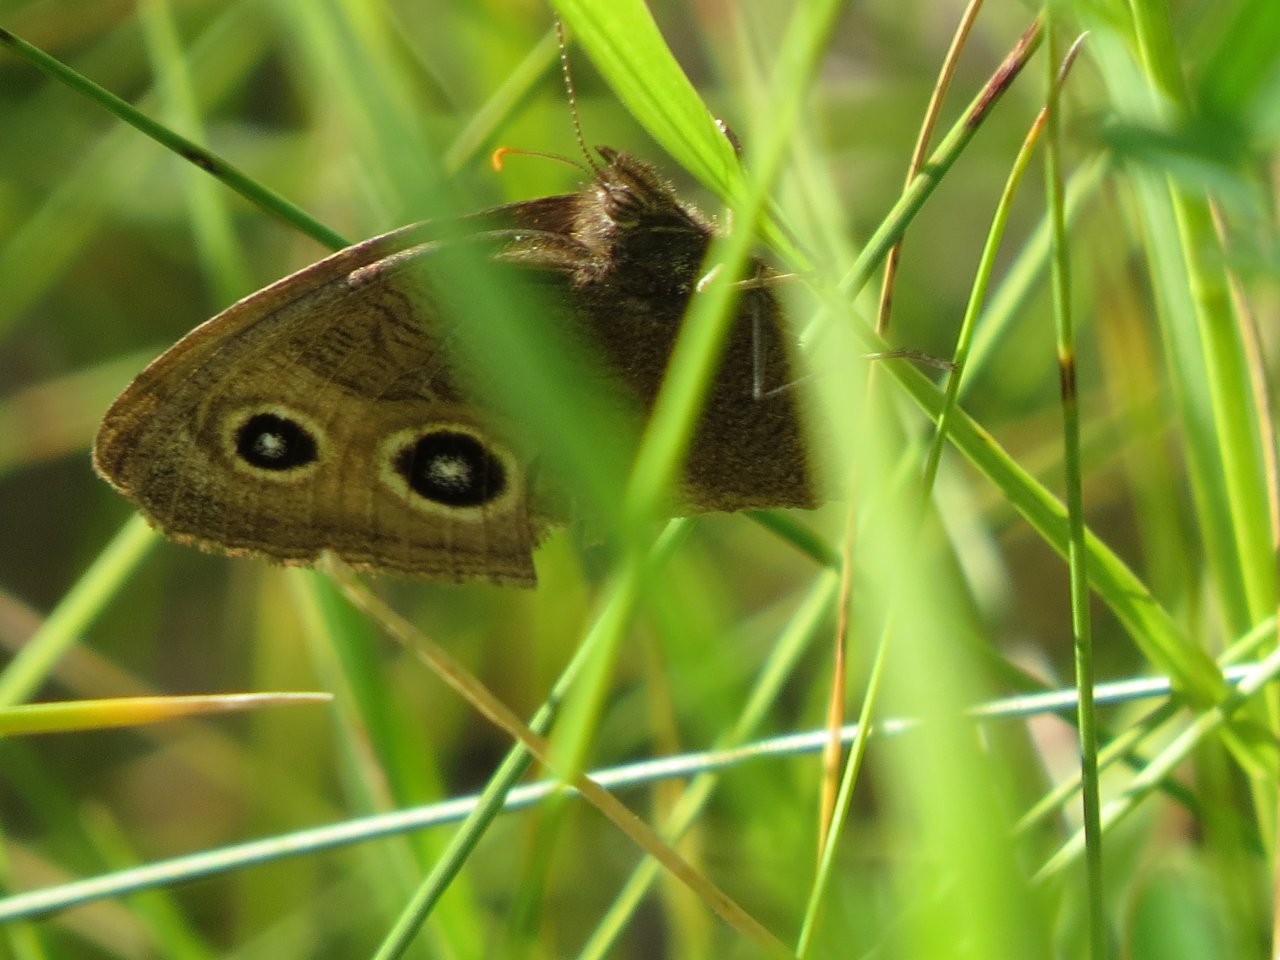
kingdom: Animalia
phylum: Arthropoda
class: Insecta
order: Lepidoptera
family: Nymphalidae
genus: Cercyonis
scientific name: Cercyonis pegala
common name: Common Wood-Nymph
